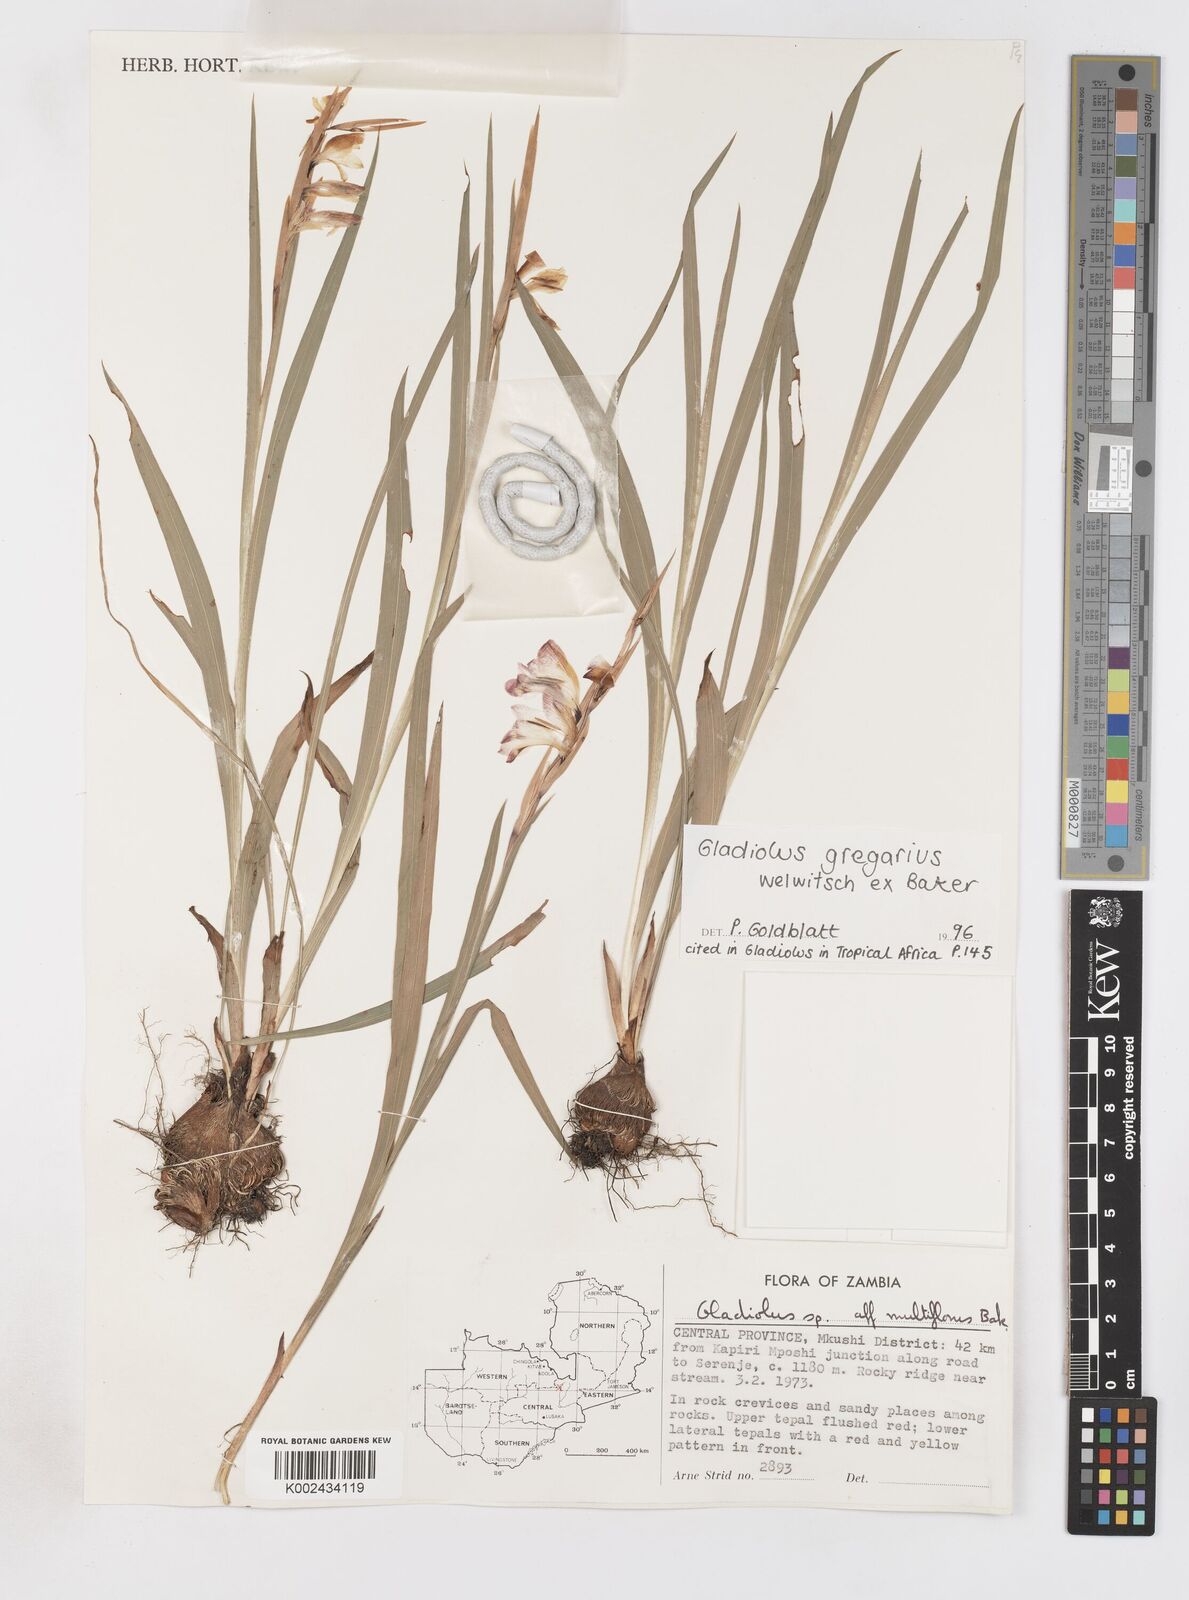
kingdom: Plantae
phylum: Tracheophyta
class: Liliopsida
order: Asparagales
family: Iridaceae
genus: Gladiolus
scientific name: Gladiolus gregarius
